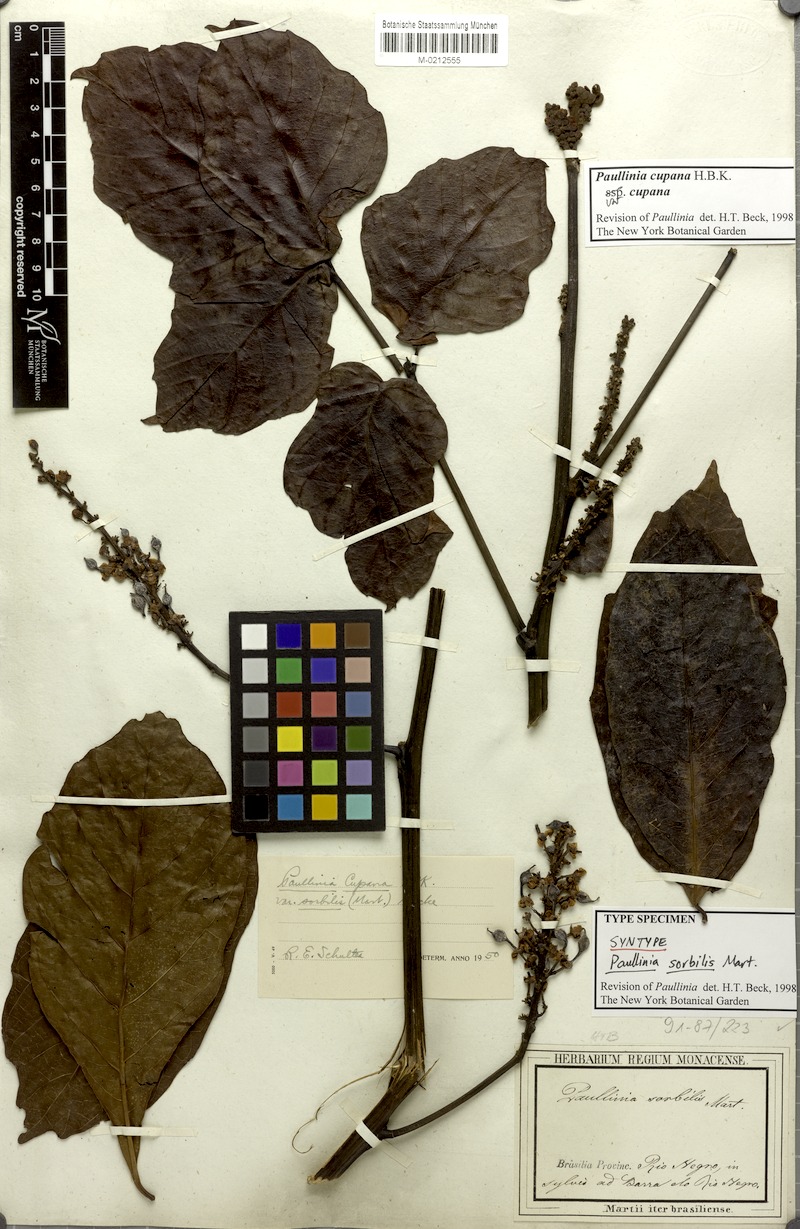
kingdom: Plantae
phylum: Tracheophyta
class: Magnoliopsida
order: Sapindales
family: Sapindaceae
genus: Paullinia
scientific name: Paullinia cupana
